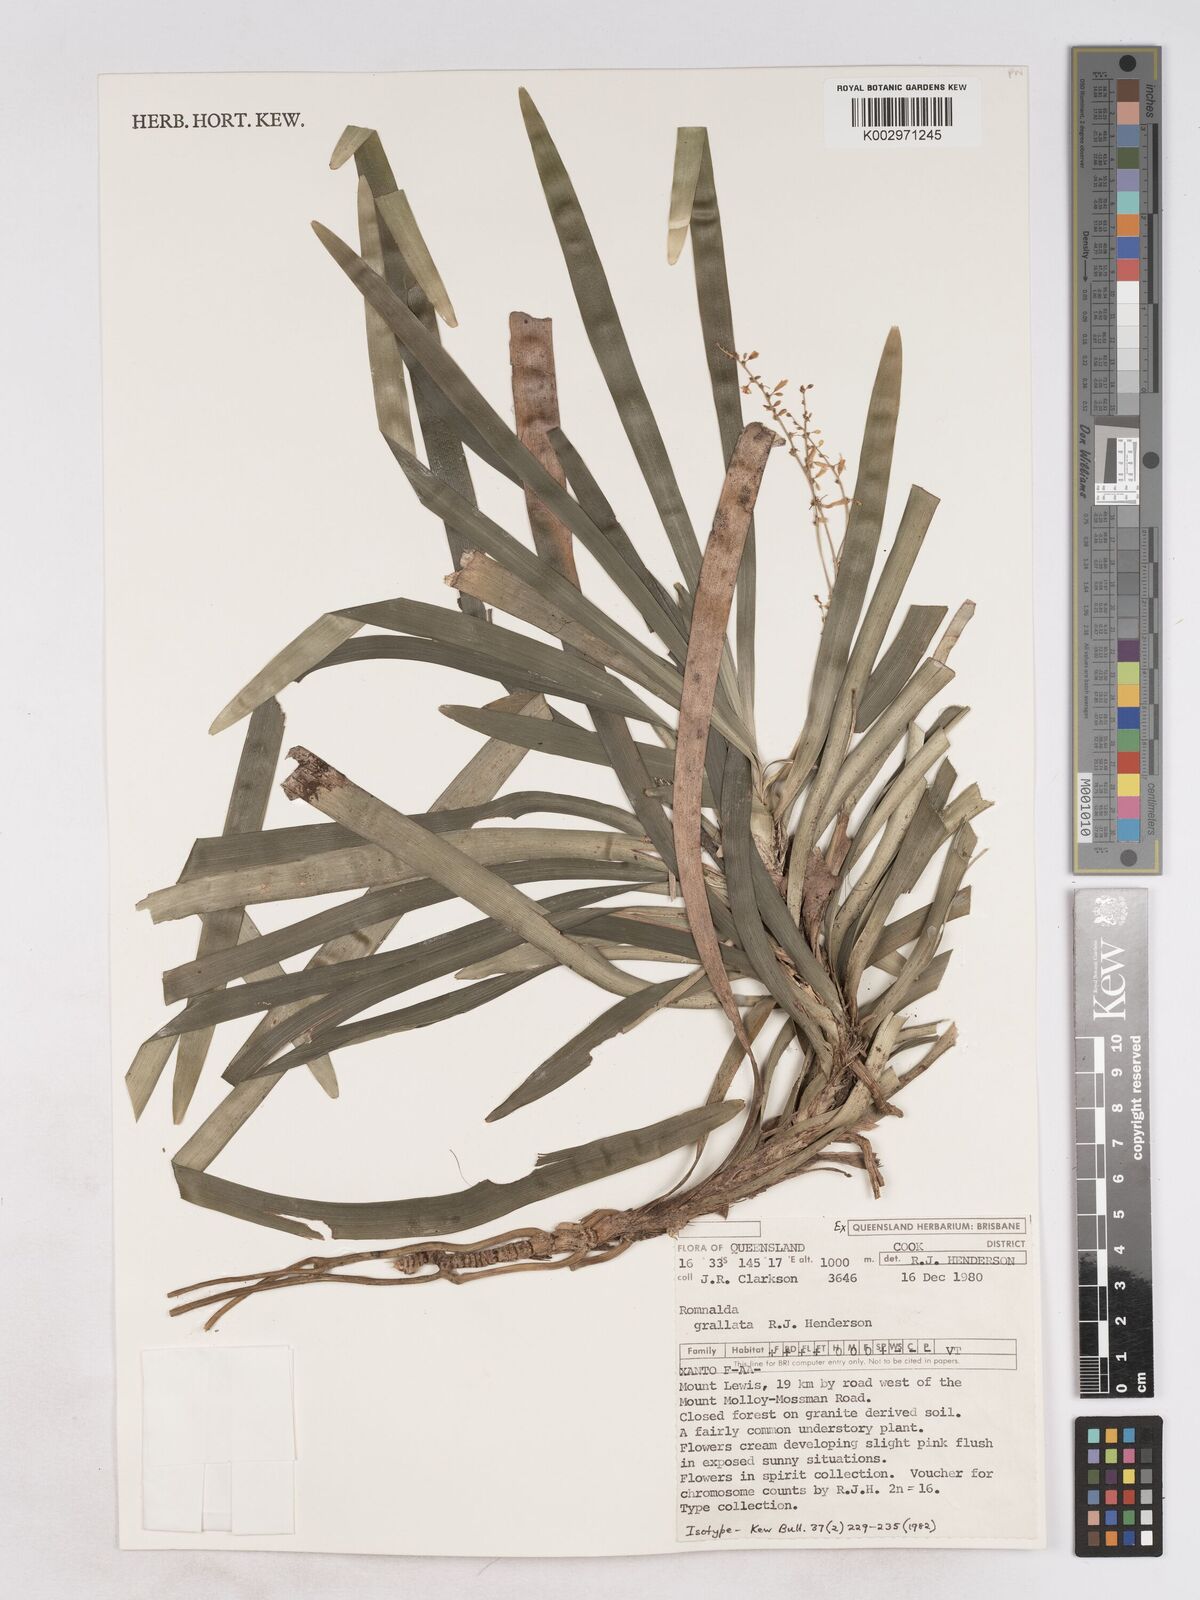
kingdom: Plantae
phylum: Tracheophyta
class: Liliopsida
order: Asparagales
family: Asparagaceae
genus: Romnalda
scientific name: Romnalda grallata
